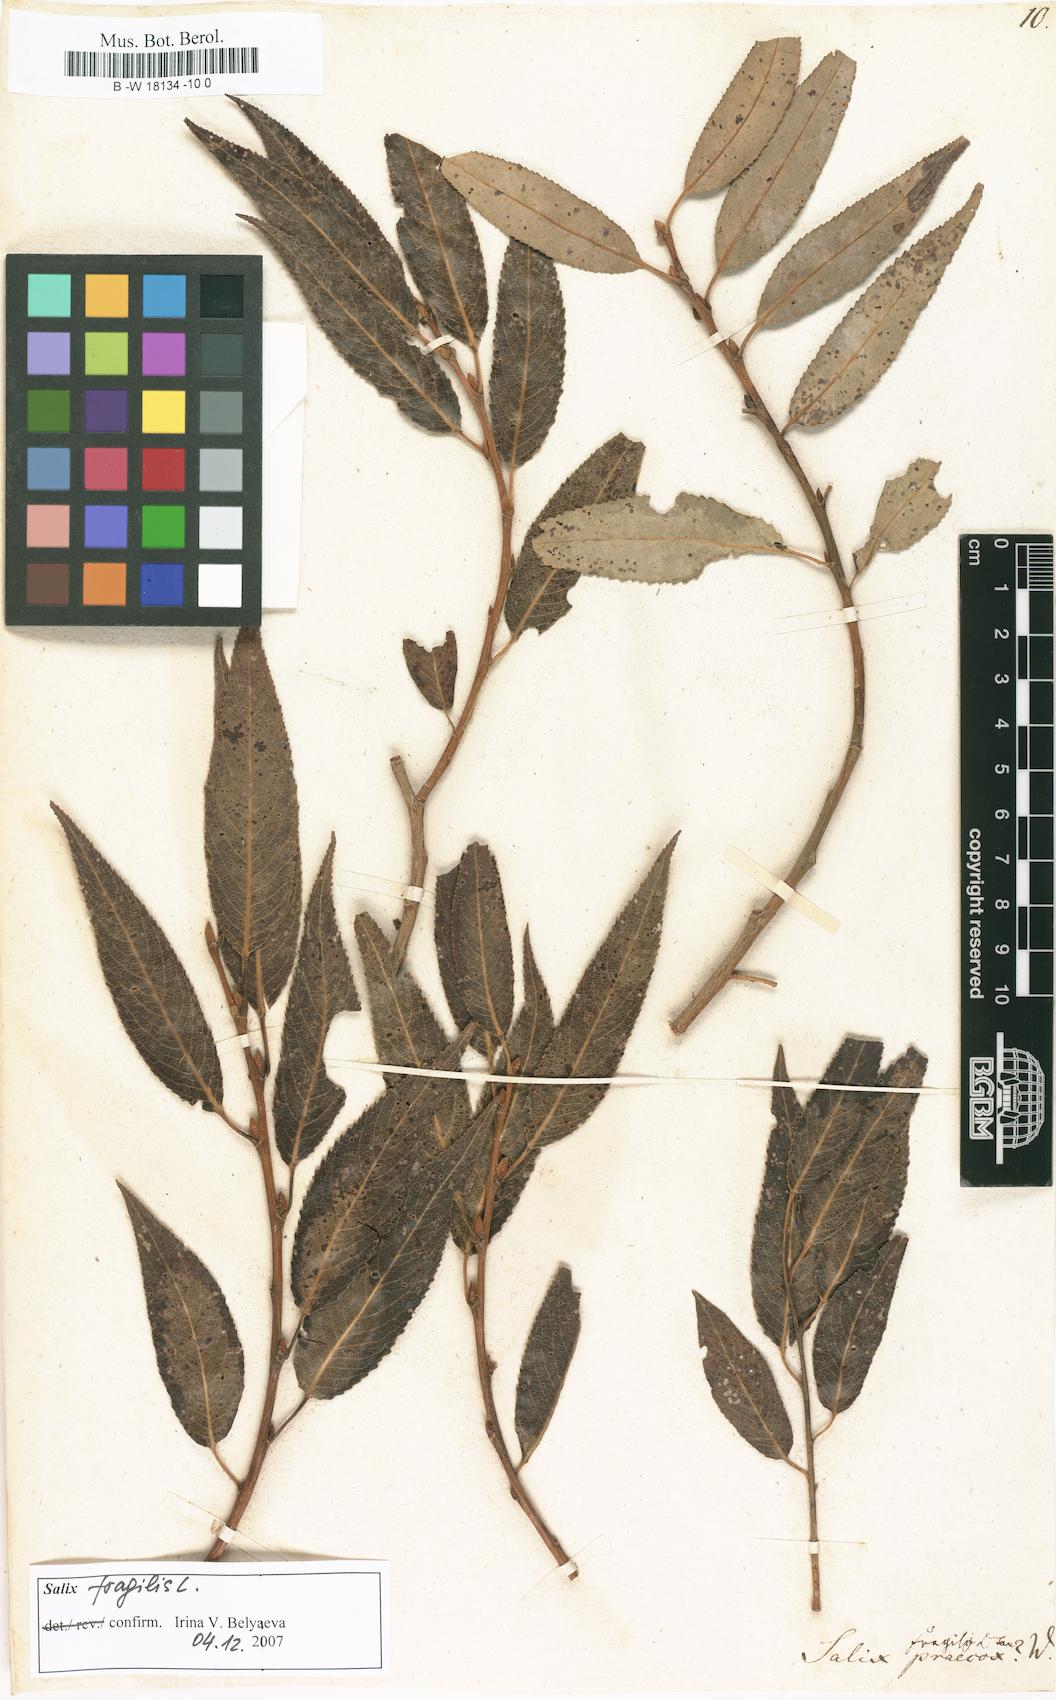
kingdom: Plantae
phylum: Tracheophyta
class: Magnoliopsida
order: Malpighiales
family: Salicaceae
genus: Salix
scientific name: Salix
